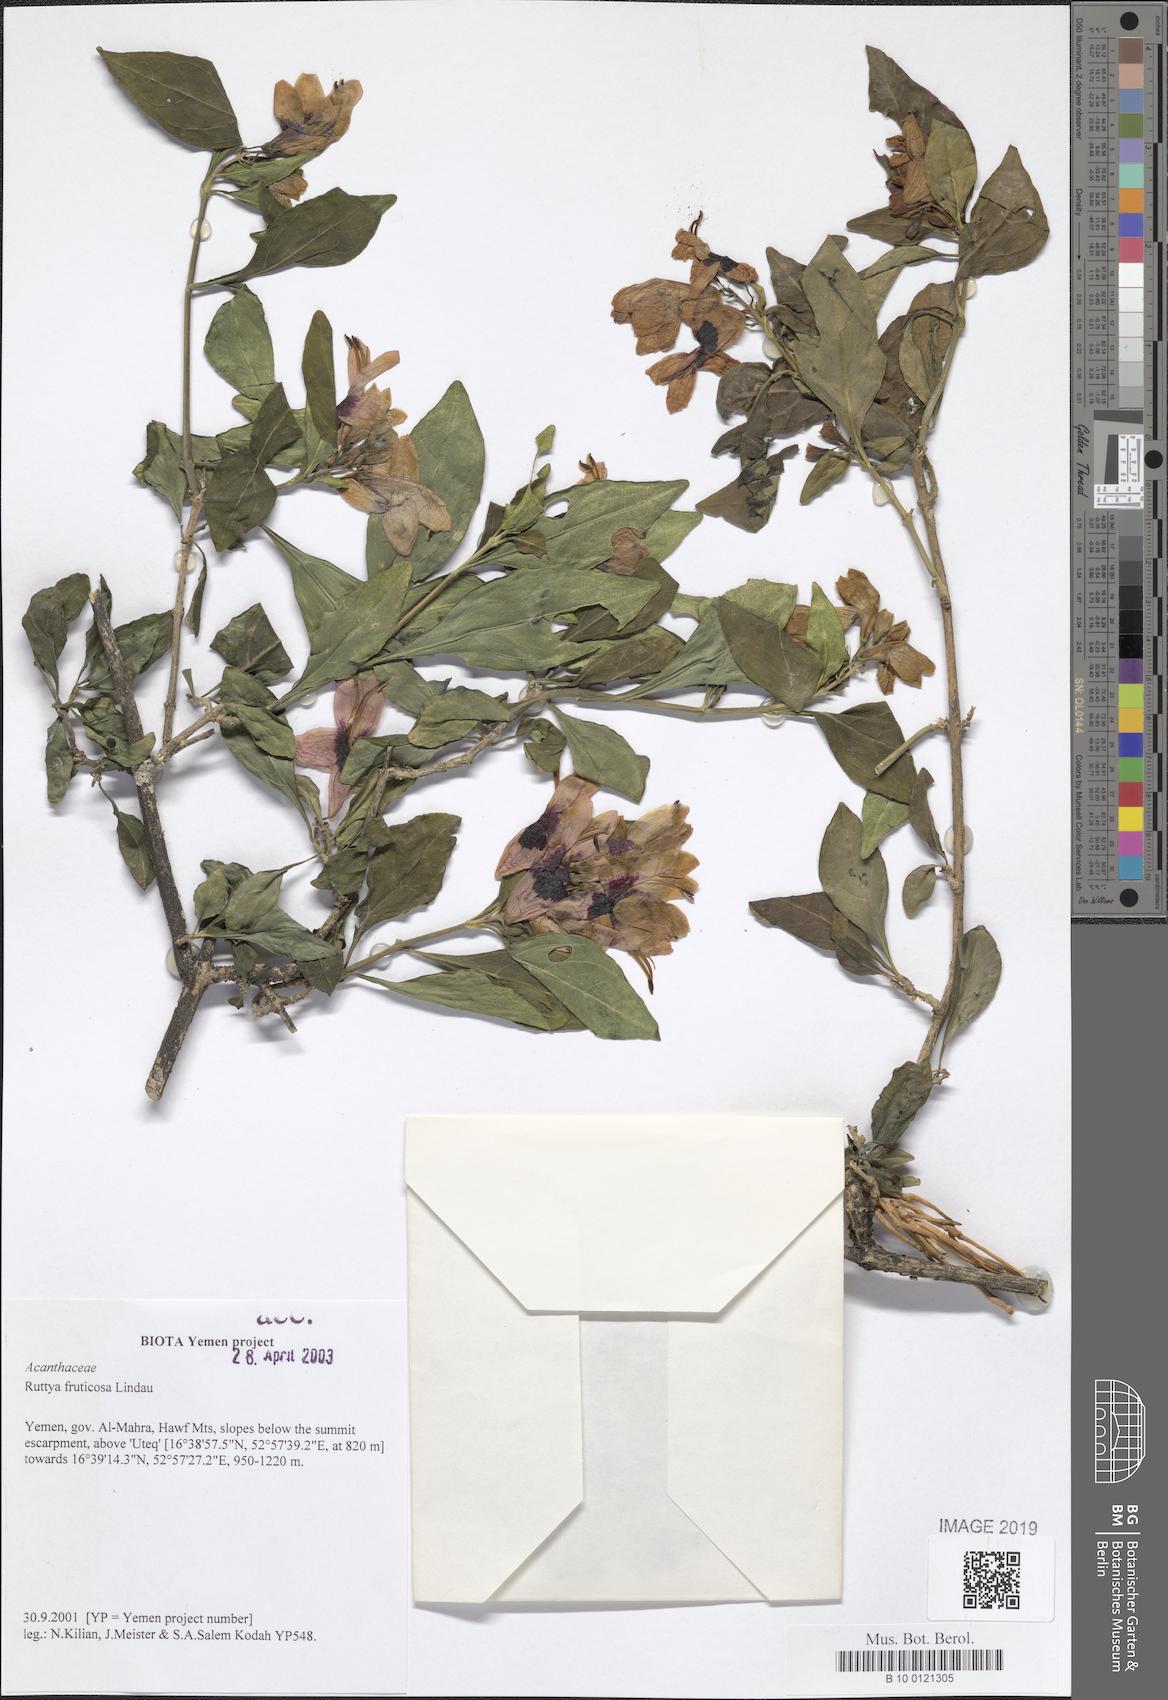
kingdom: Plantae
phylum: Tracheophyta
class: Magnoliopsida
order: Lamiales
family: Acanthaceae
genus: Ruttya
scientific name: Ruttya fruticosa
